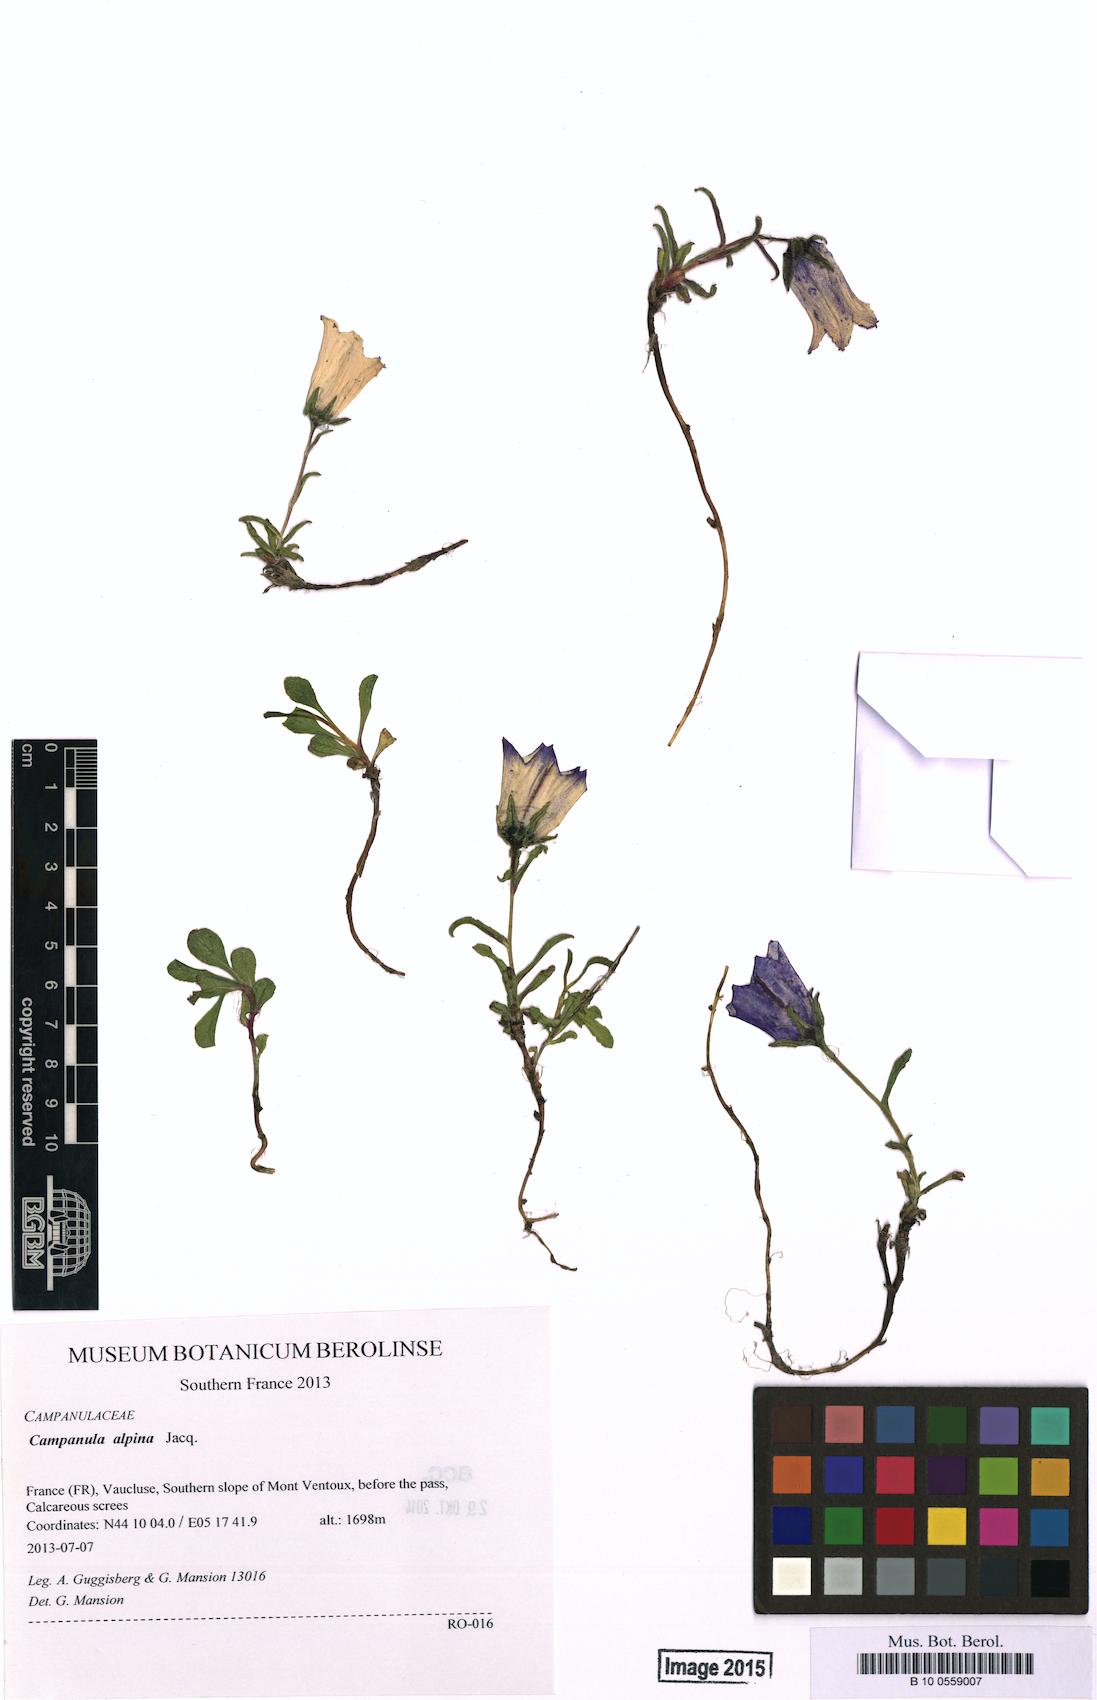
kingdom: Plantae
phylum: Tracheophyta
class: Magnoliopsida
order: Asterales
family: Campanulaceae
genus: Campanula
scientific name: Campanula alpina
